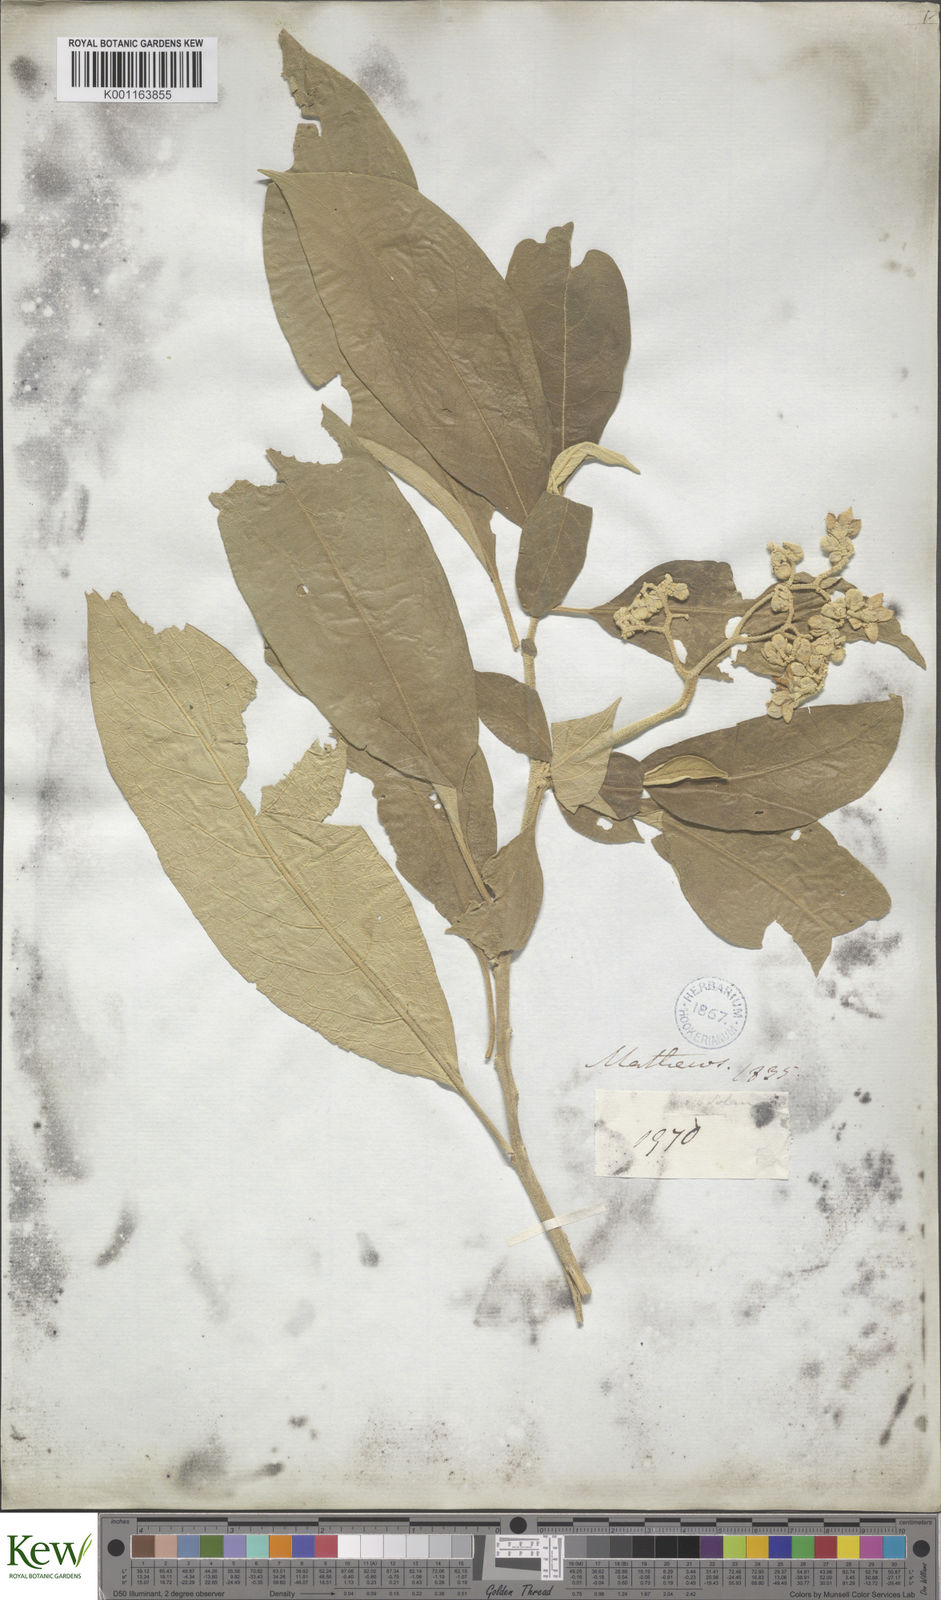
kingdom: Plantae
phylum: Tracheophyta
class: Magnoliopsida
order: Solanales
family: Solanaceae
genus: Solanum
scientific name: Solanum erianthum
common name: Tobacco-tree
